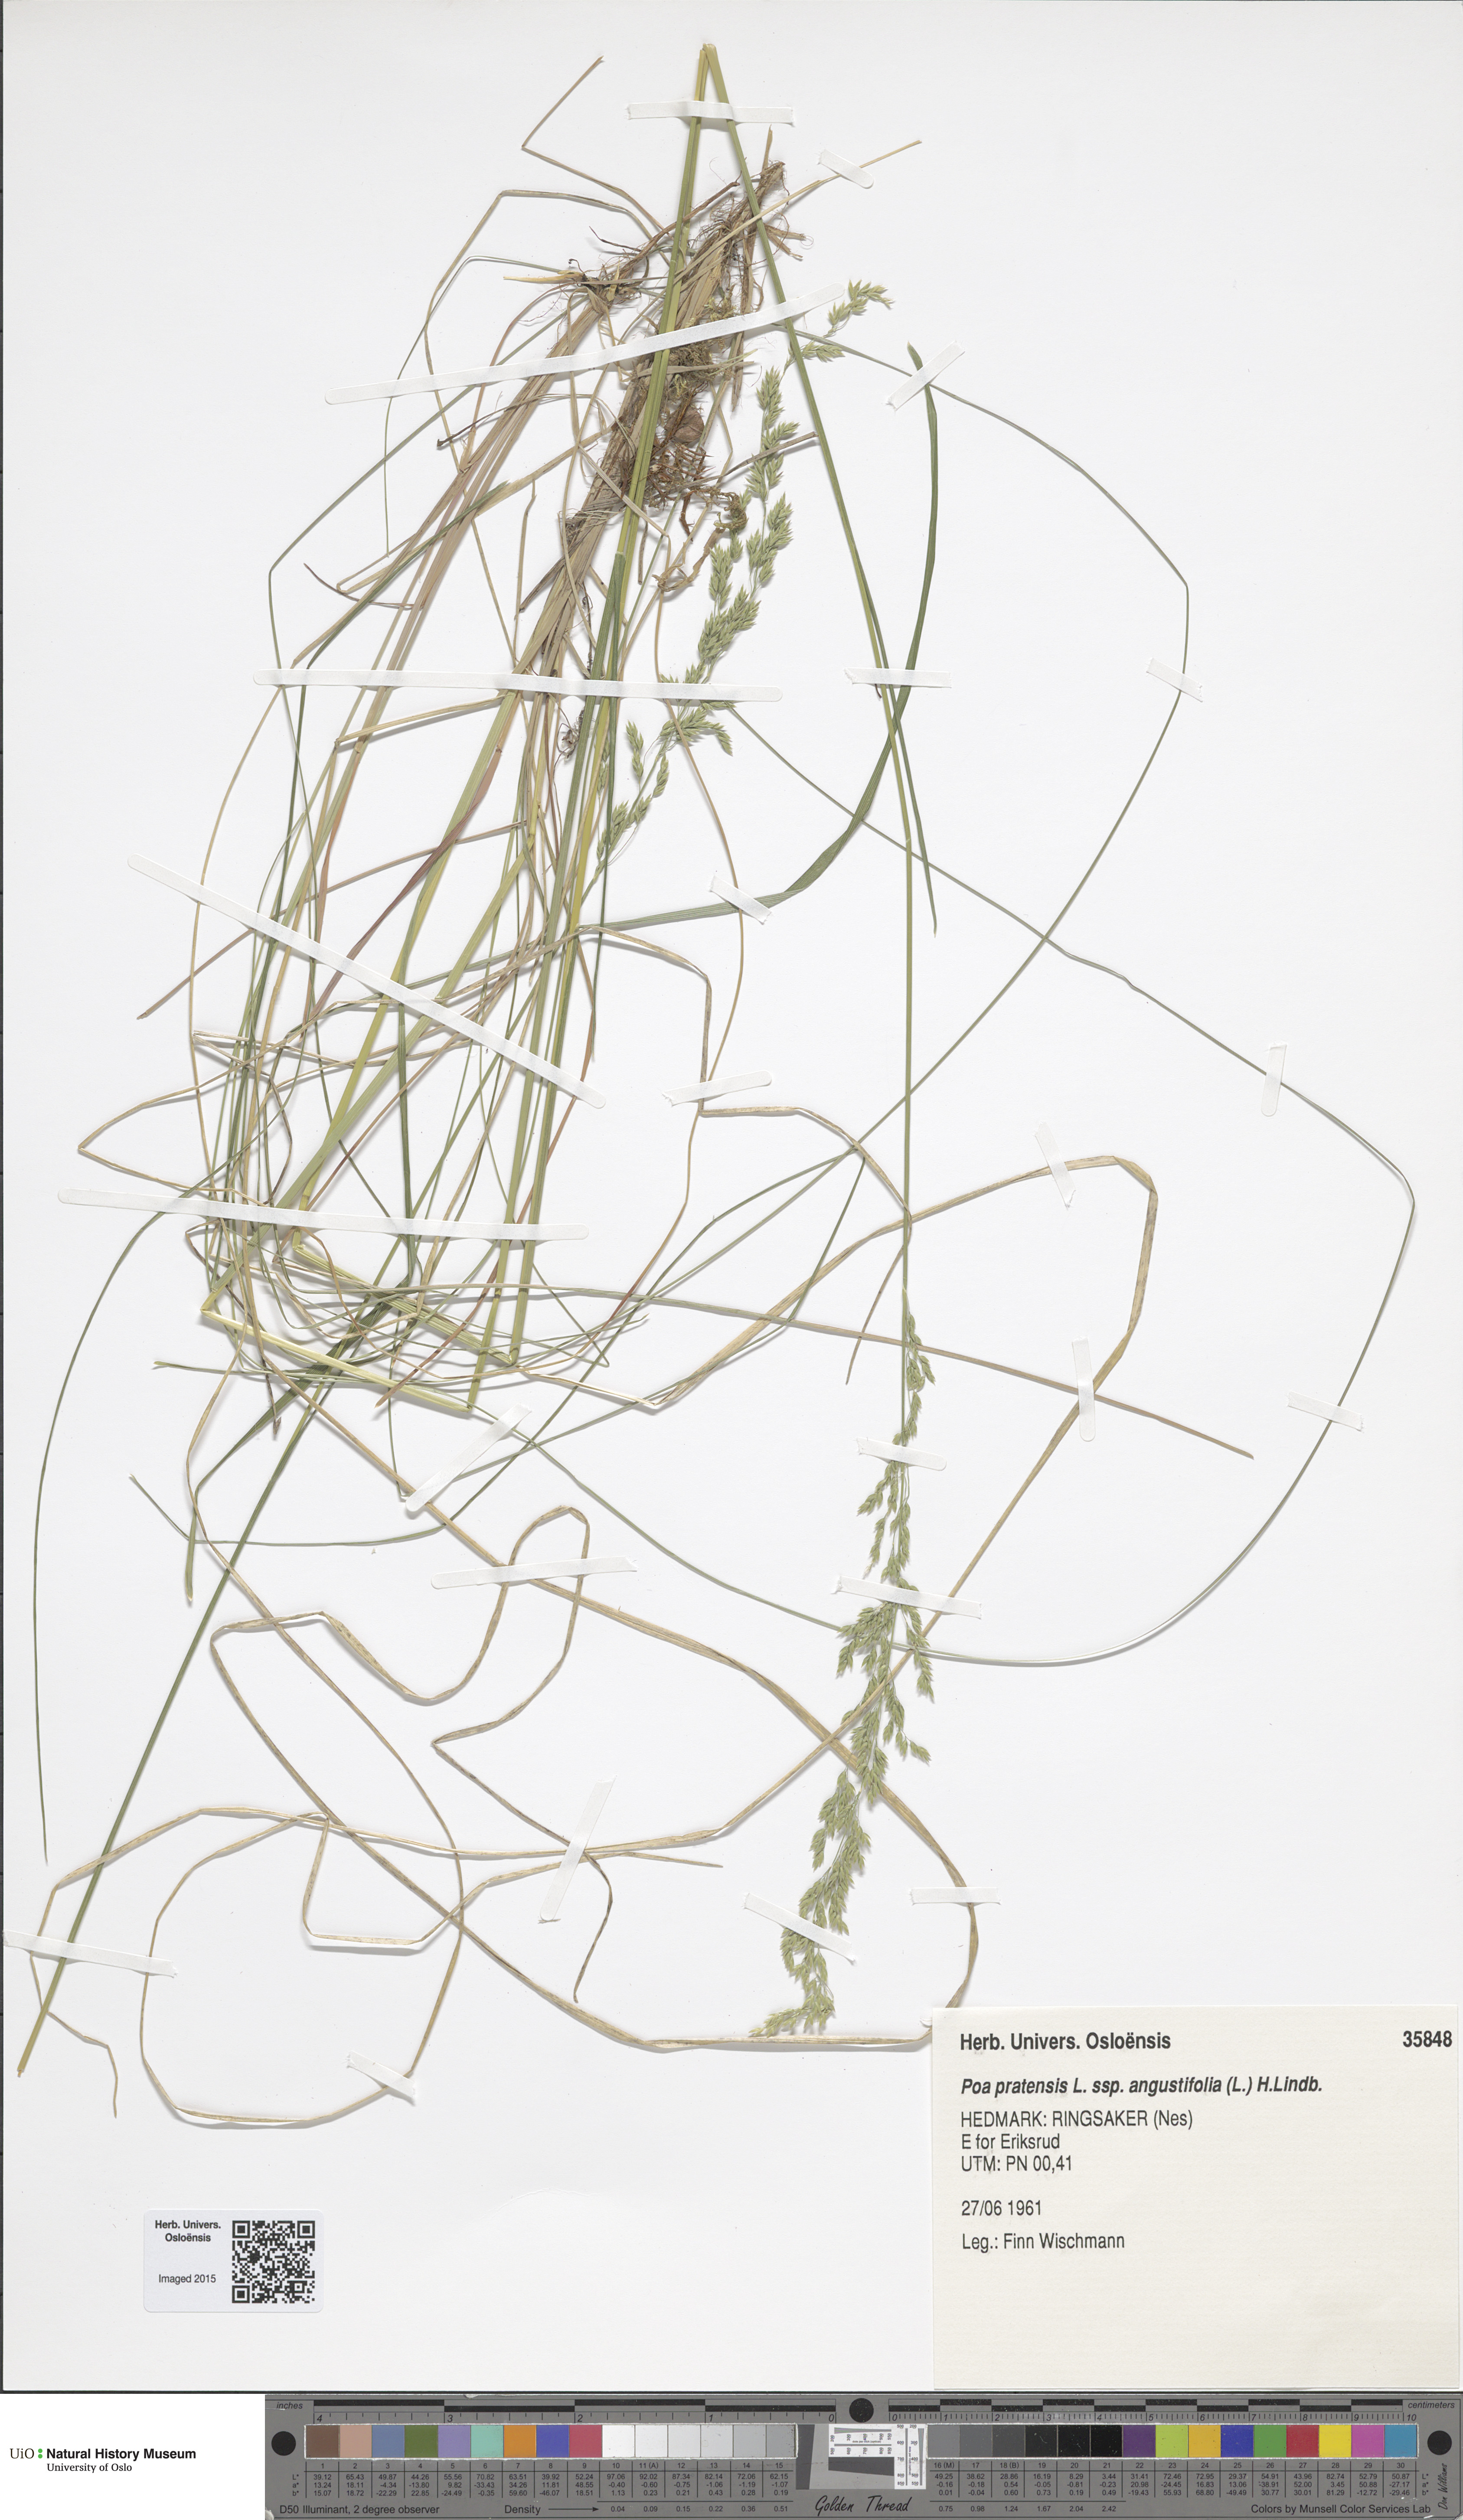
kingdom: Plantae
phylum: Tracheophyta
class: Liliopsida
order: Poales
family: Poaceae
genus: Poa
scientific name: Poa angustifolia
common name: Narrow-leaved meadow-grass
